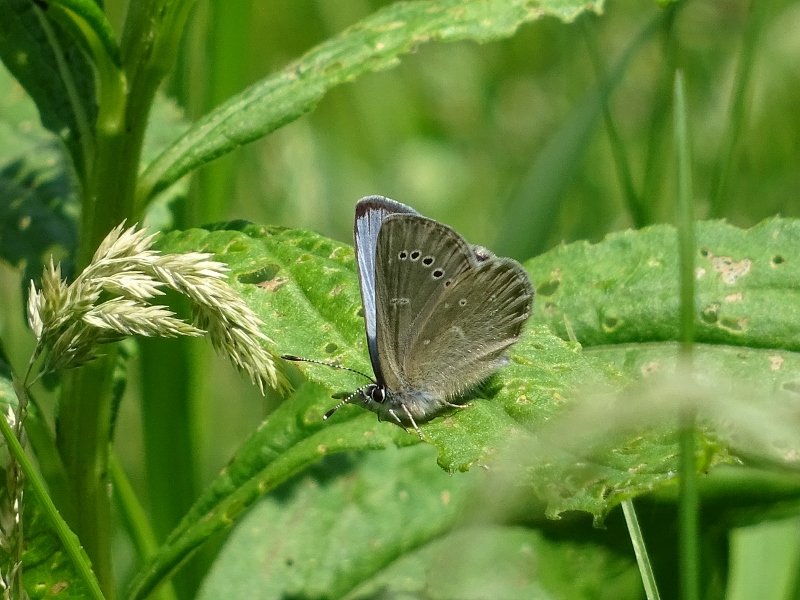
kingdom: Animalia
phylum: Arthropoda
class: Insecta
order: Lepidoptera
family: Lycaenidae
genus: Glaucopsyche
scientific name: Glaucopsyche lygdamus
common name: Silvery Blue
